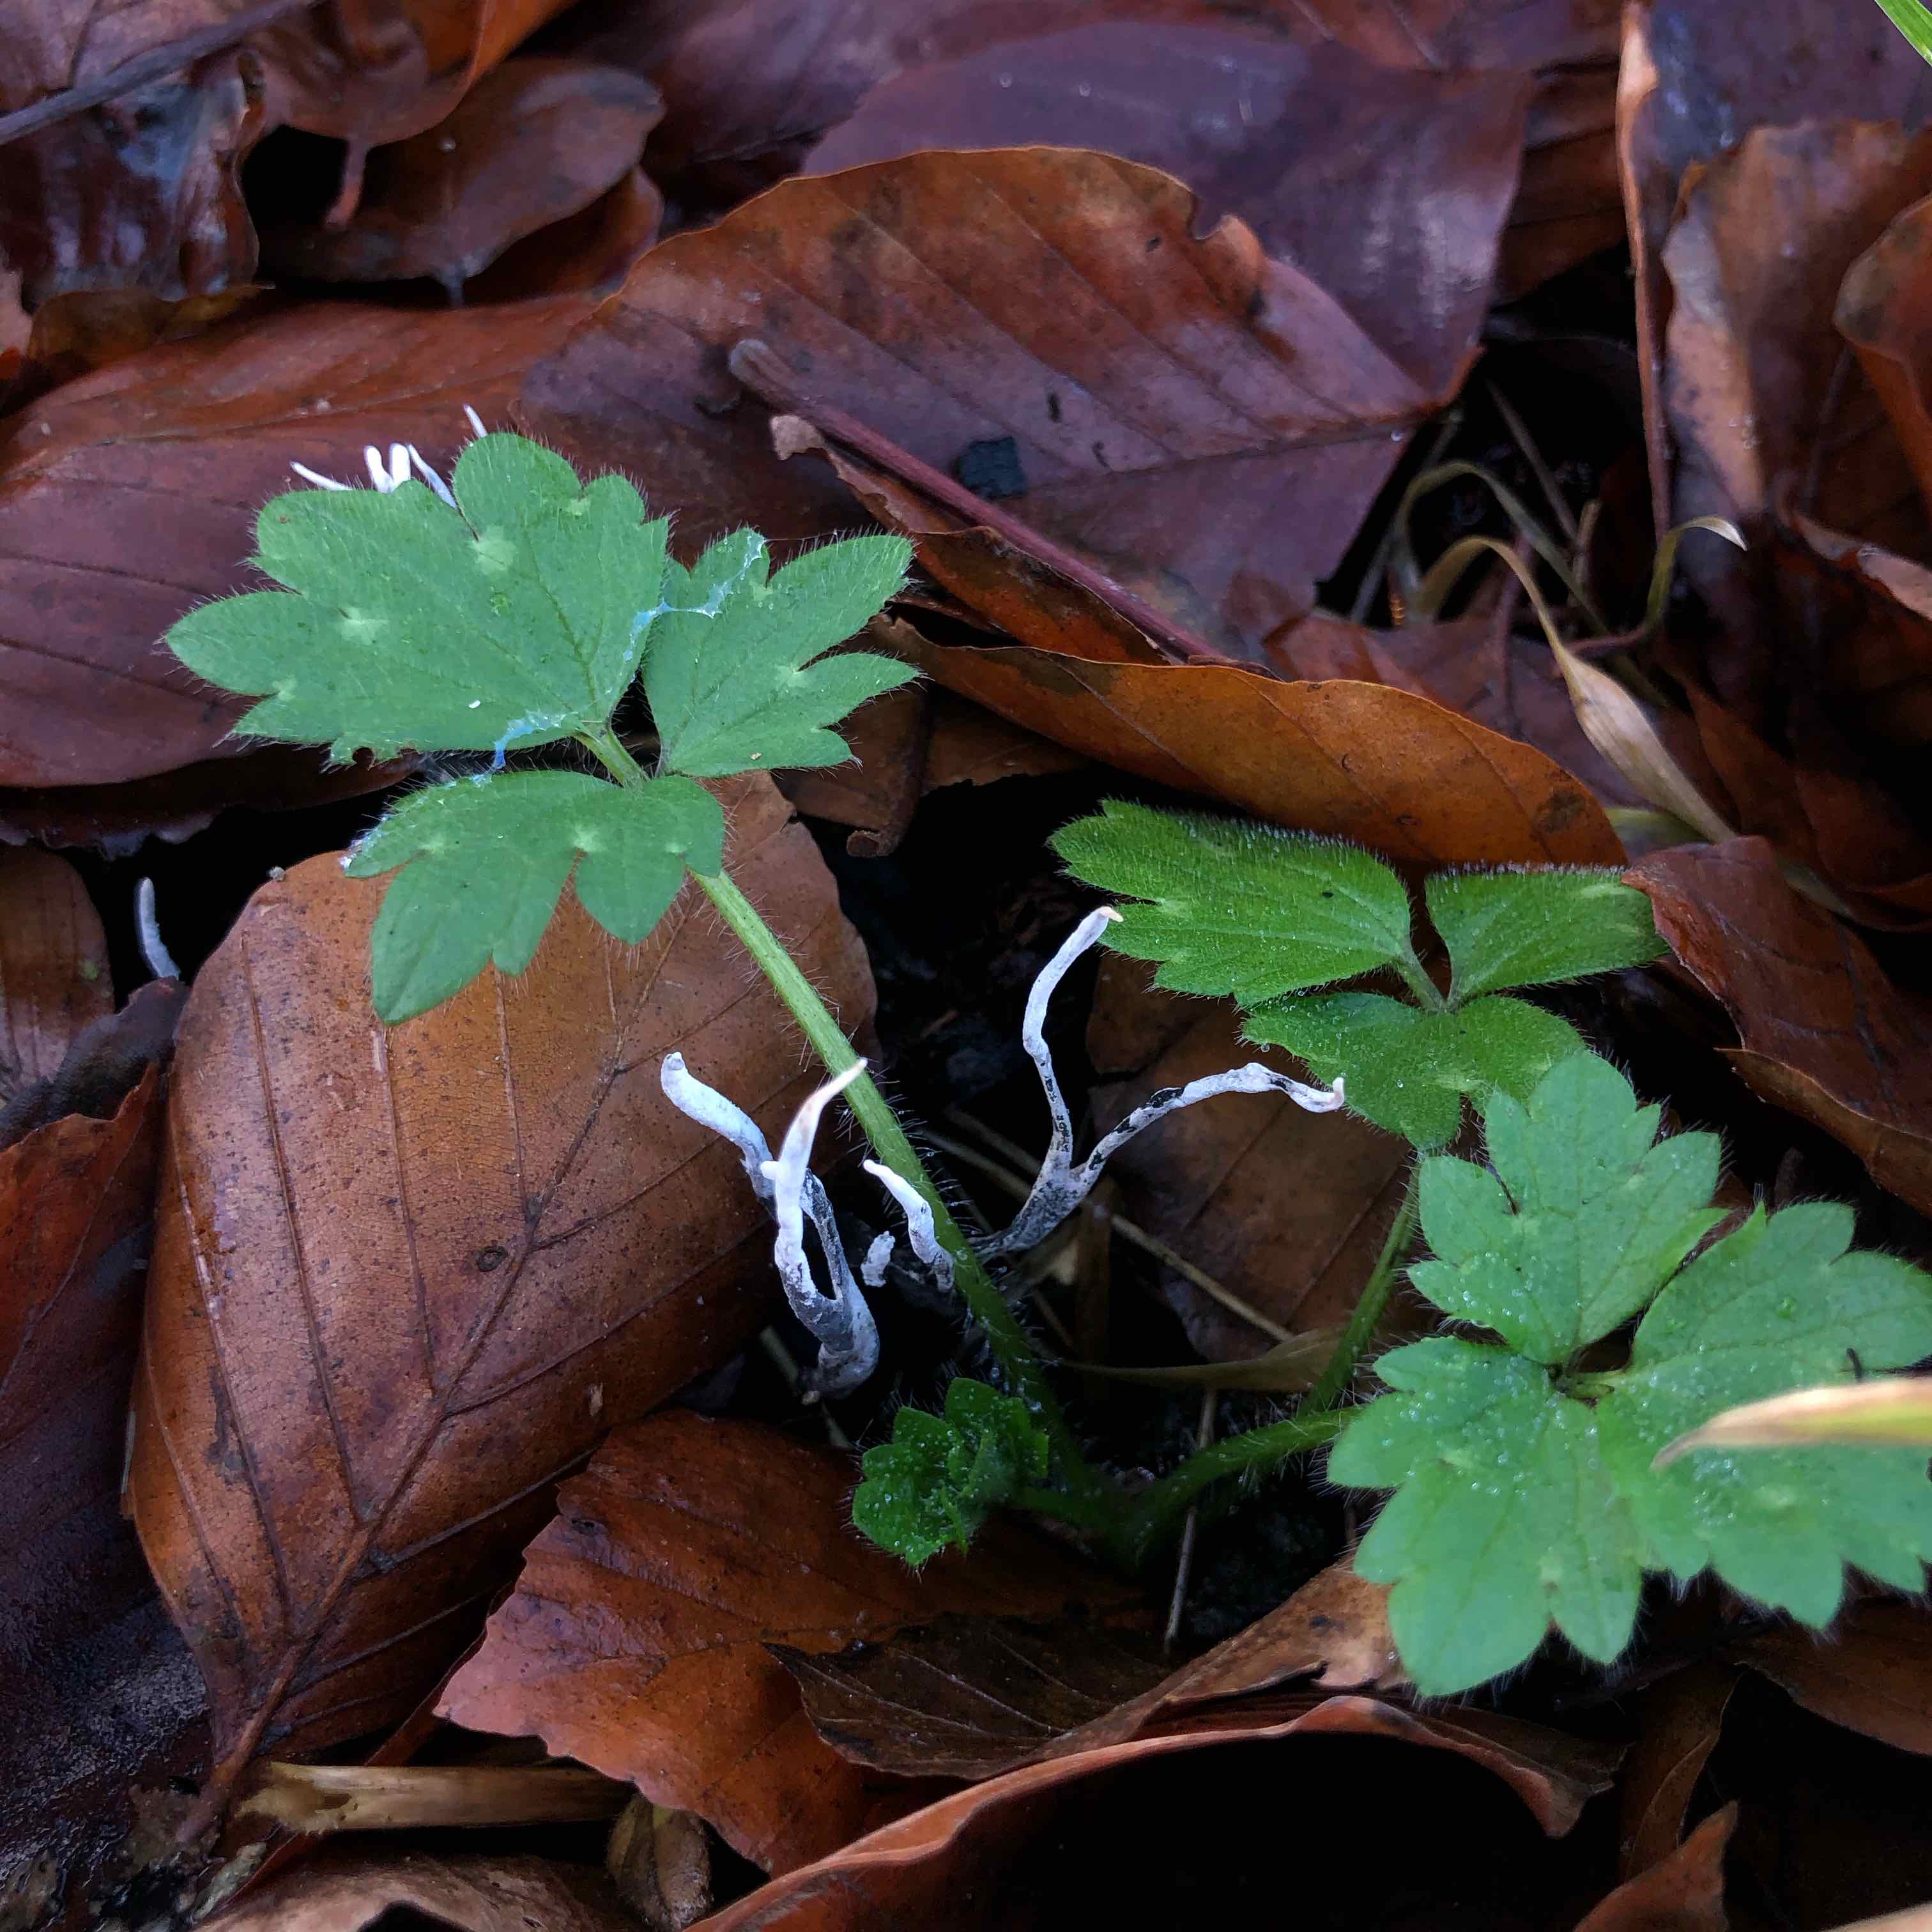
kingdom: Fungi
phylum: Ascomycota
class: Sordariomycetes
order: Xylariales
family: Xylariaceae
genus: Xylaria
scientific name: Xylaria hypoxylon
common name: grenet stødsvamp
